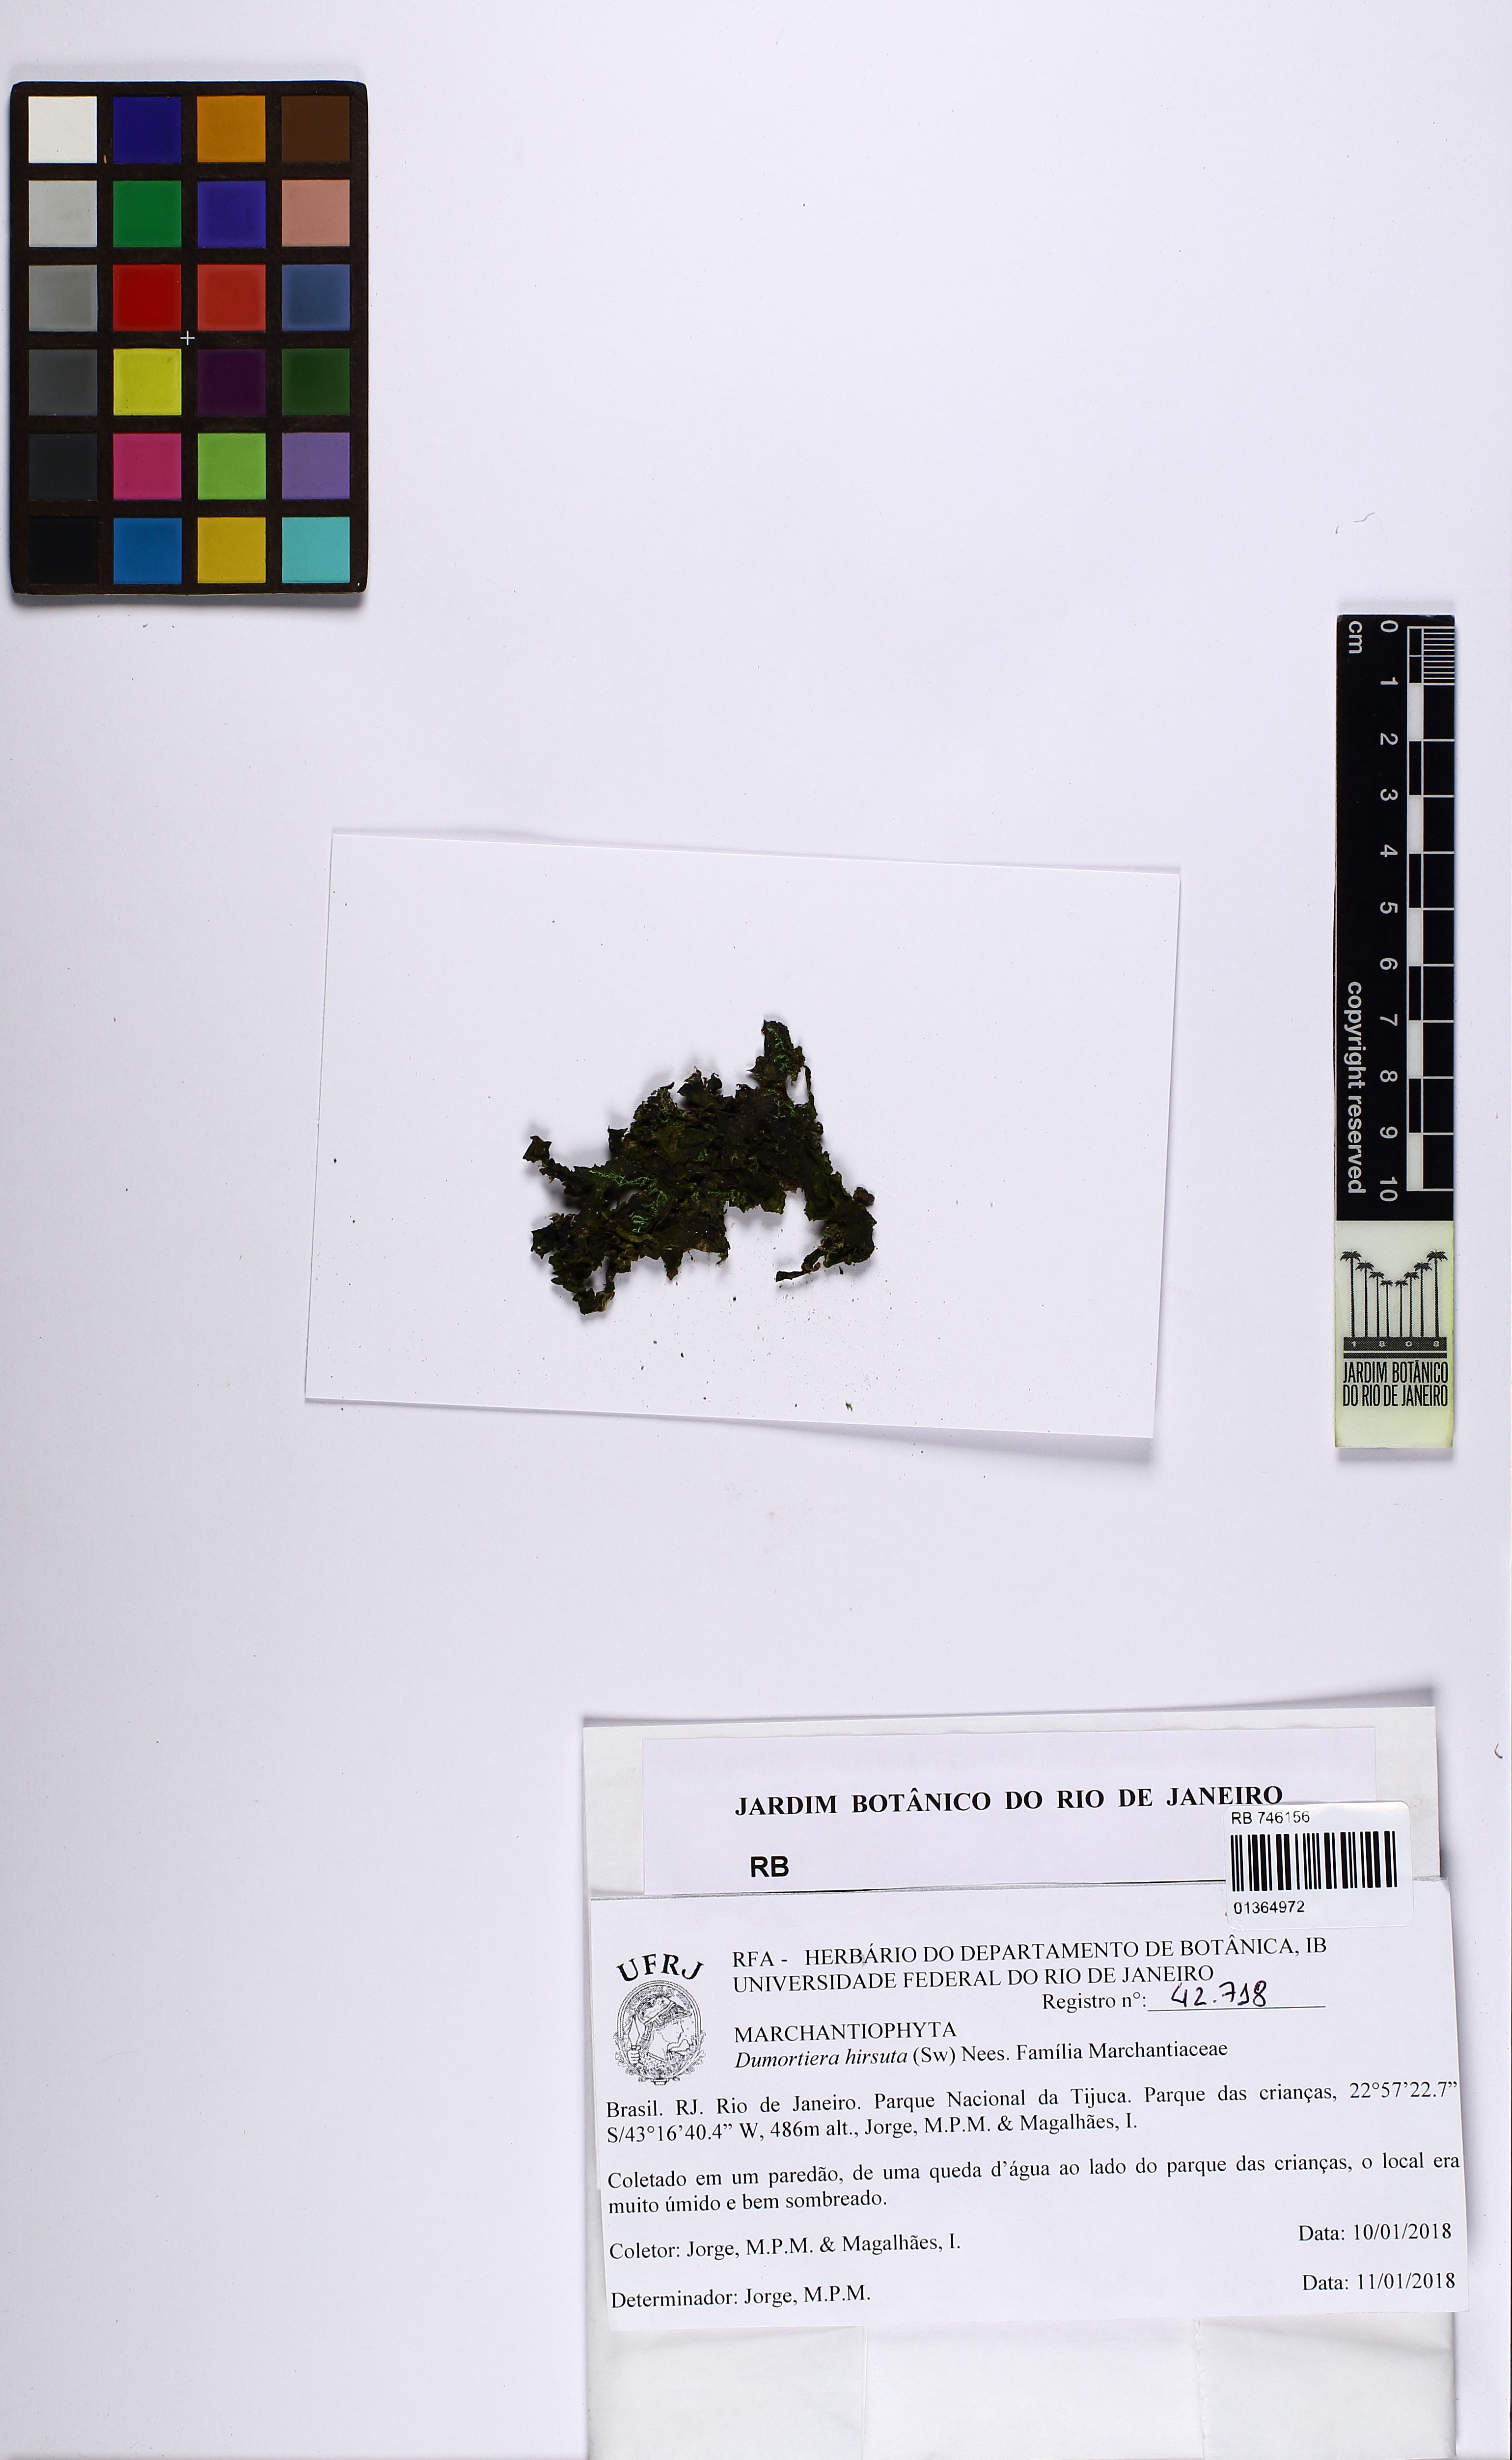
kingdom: Plantae
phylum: Marchantiophyta
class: Marchantiopsida
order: Marchantiales
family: Dumortieraceae
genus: Dumortiera
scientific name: Dumortiera hirsuta
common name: Dumortier's liverwort
